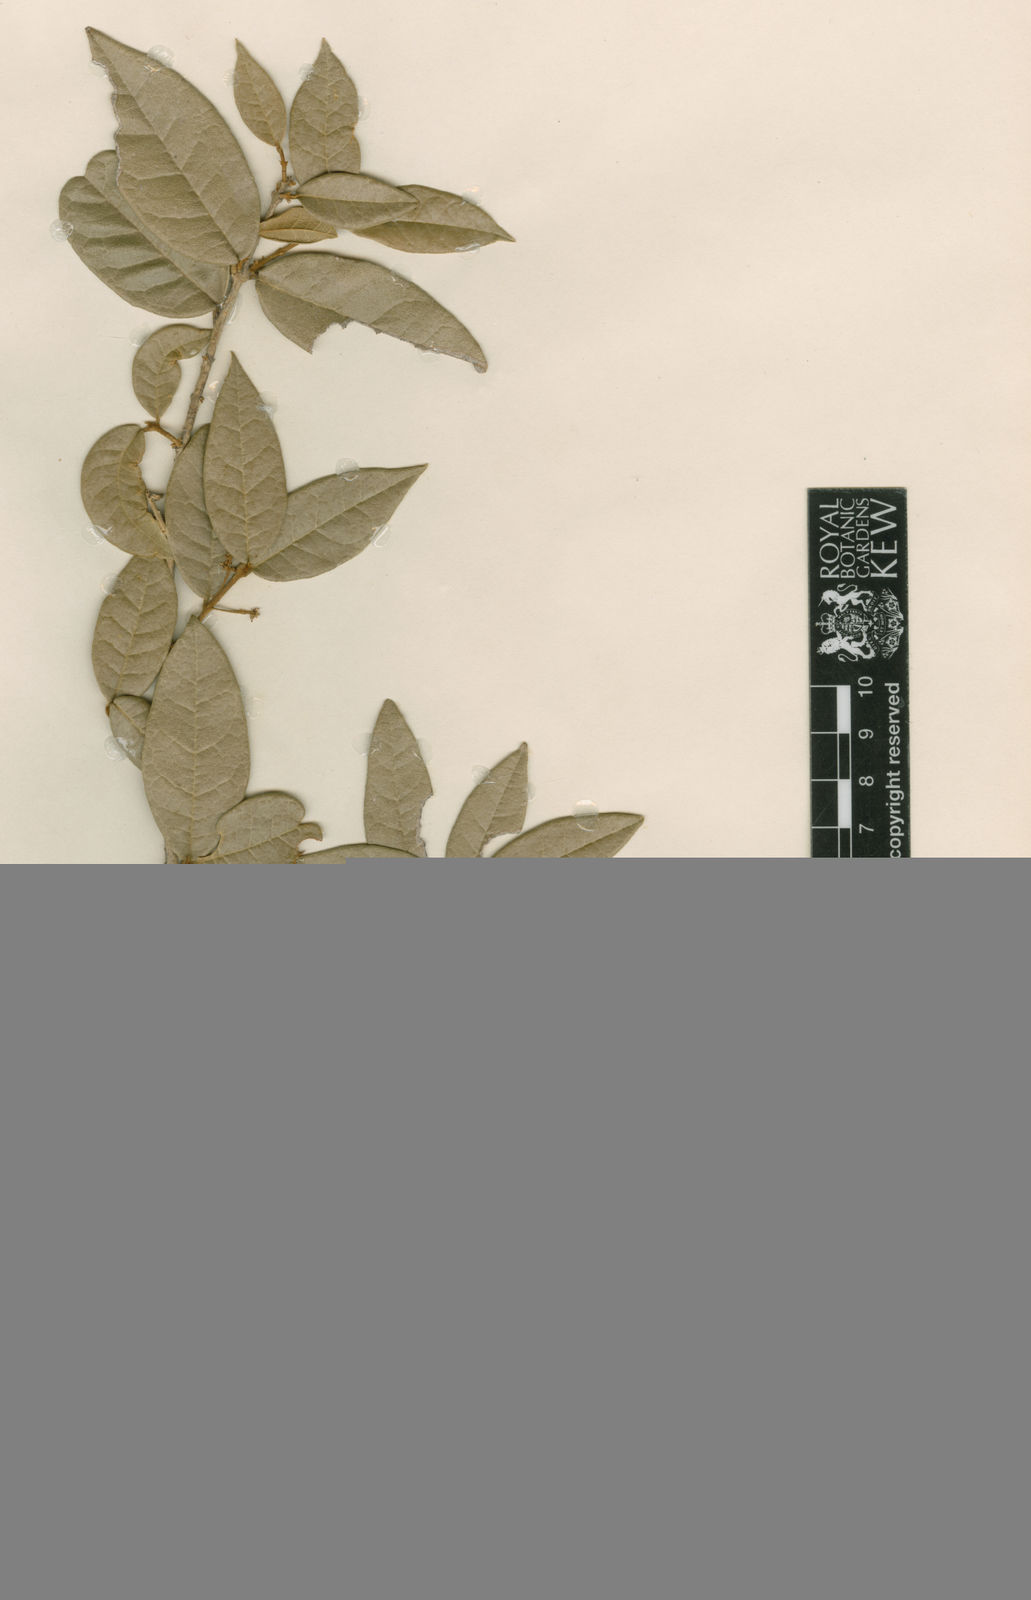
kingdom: Plantae
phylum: Tracheophyta
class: Magnoliopsida
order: Lamiales
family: Oleaceae
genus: Chionanthus
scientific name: Chionanthus dictyophyllus
